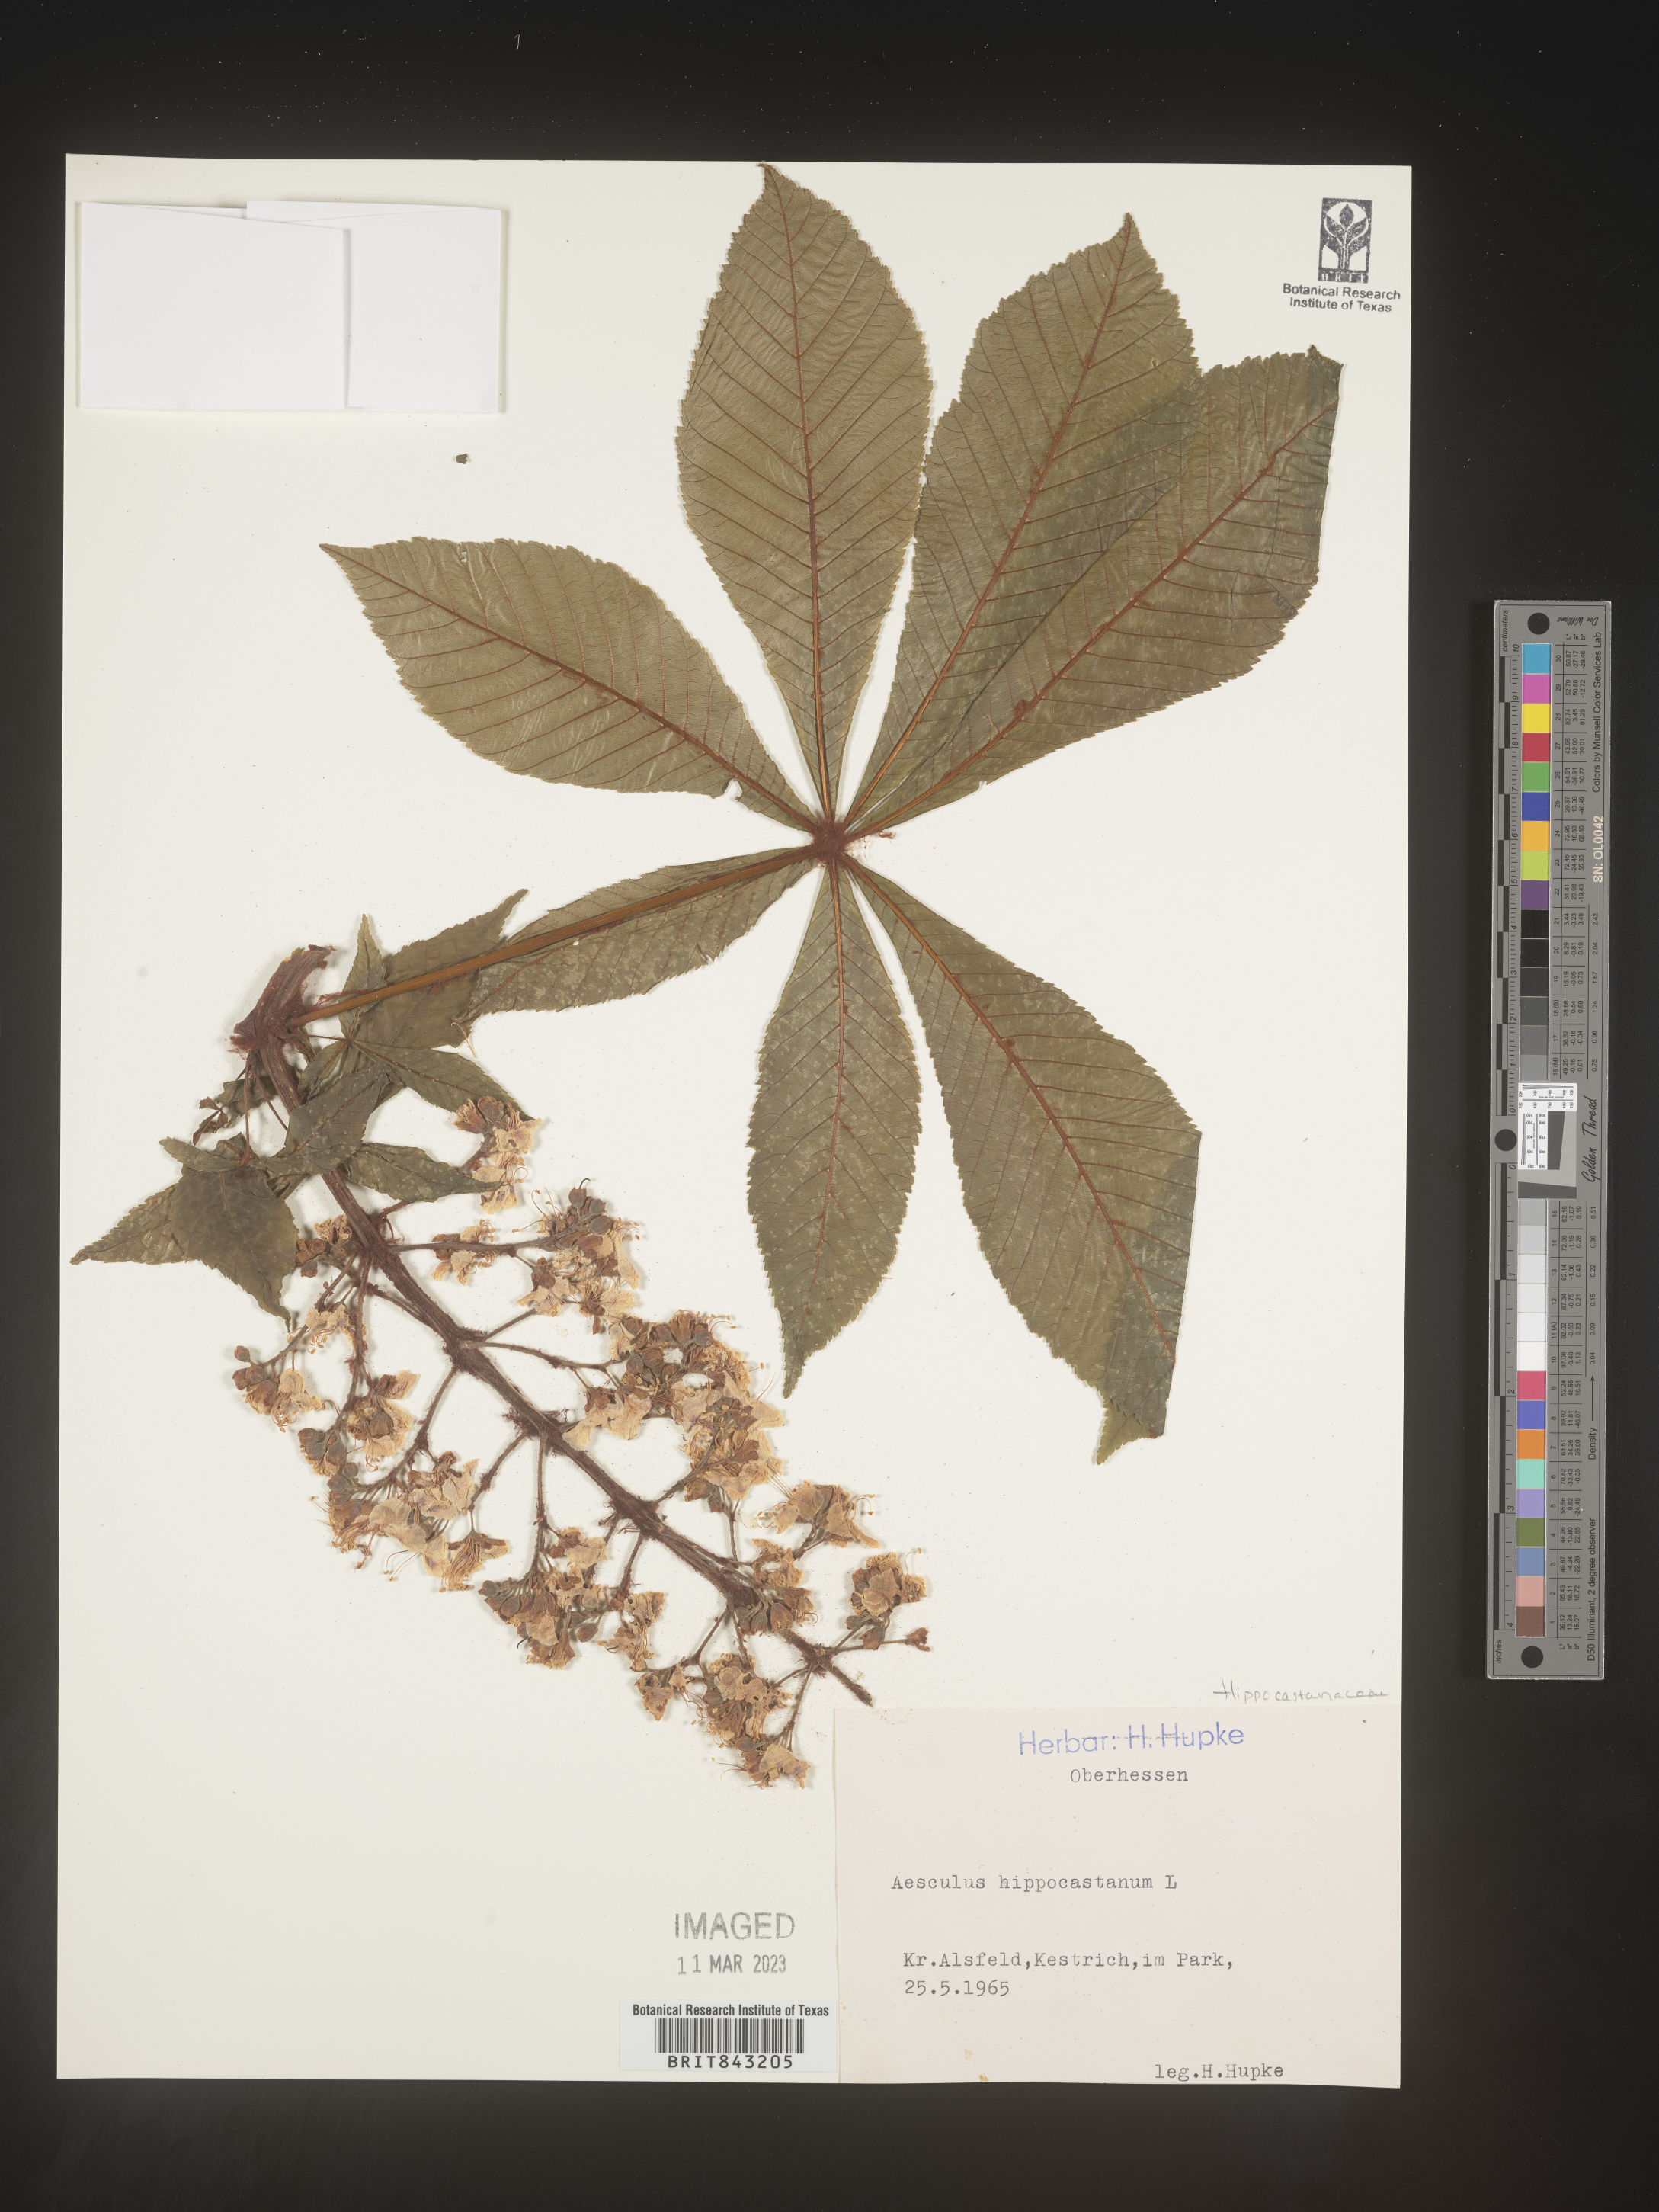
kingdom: Plantae
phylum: Tracheophyta
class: Magnoliopsida
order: Sapindales
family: Sapindaceae
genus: Aesculus
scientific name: Aesculus
